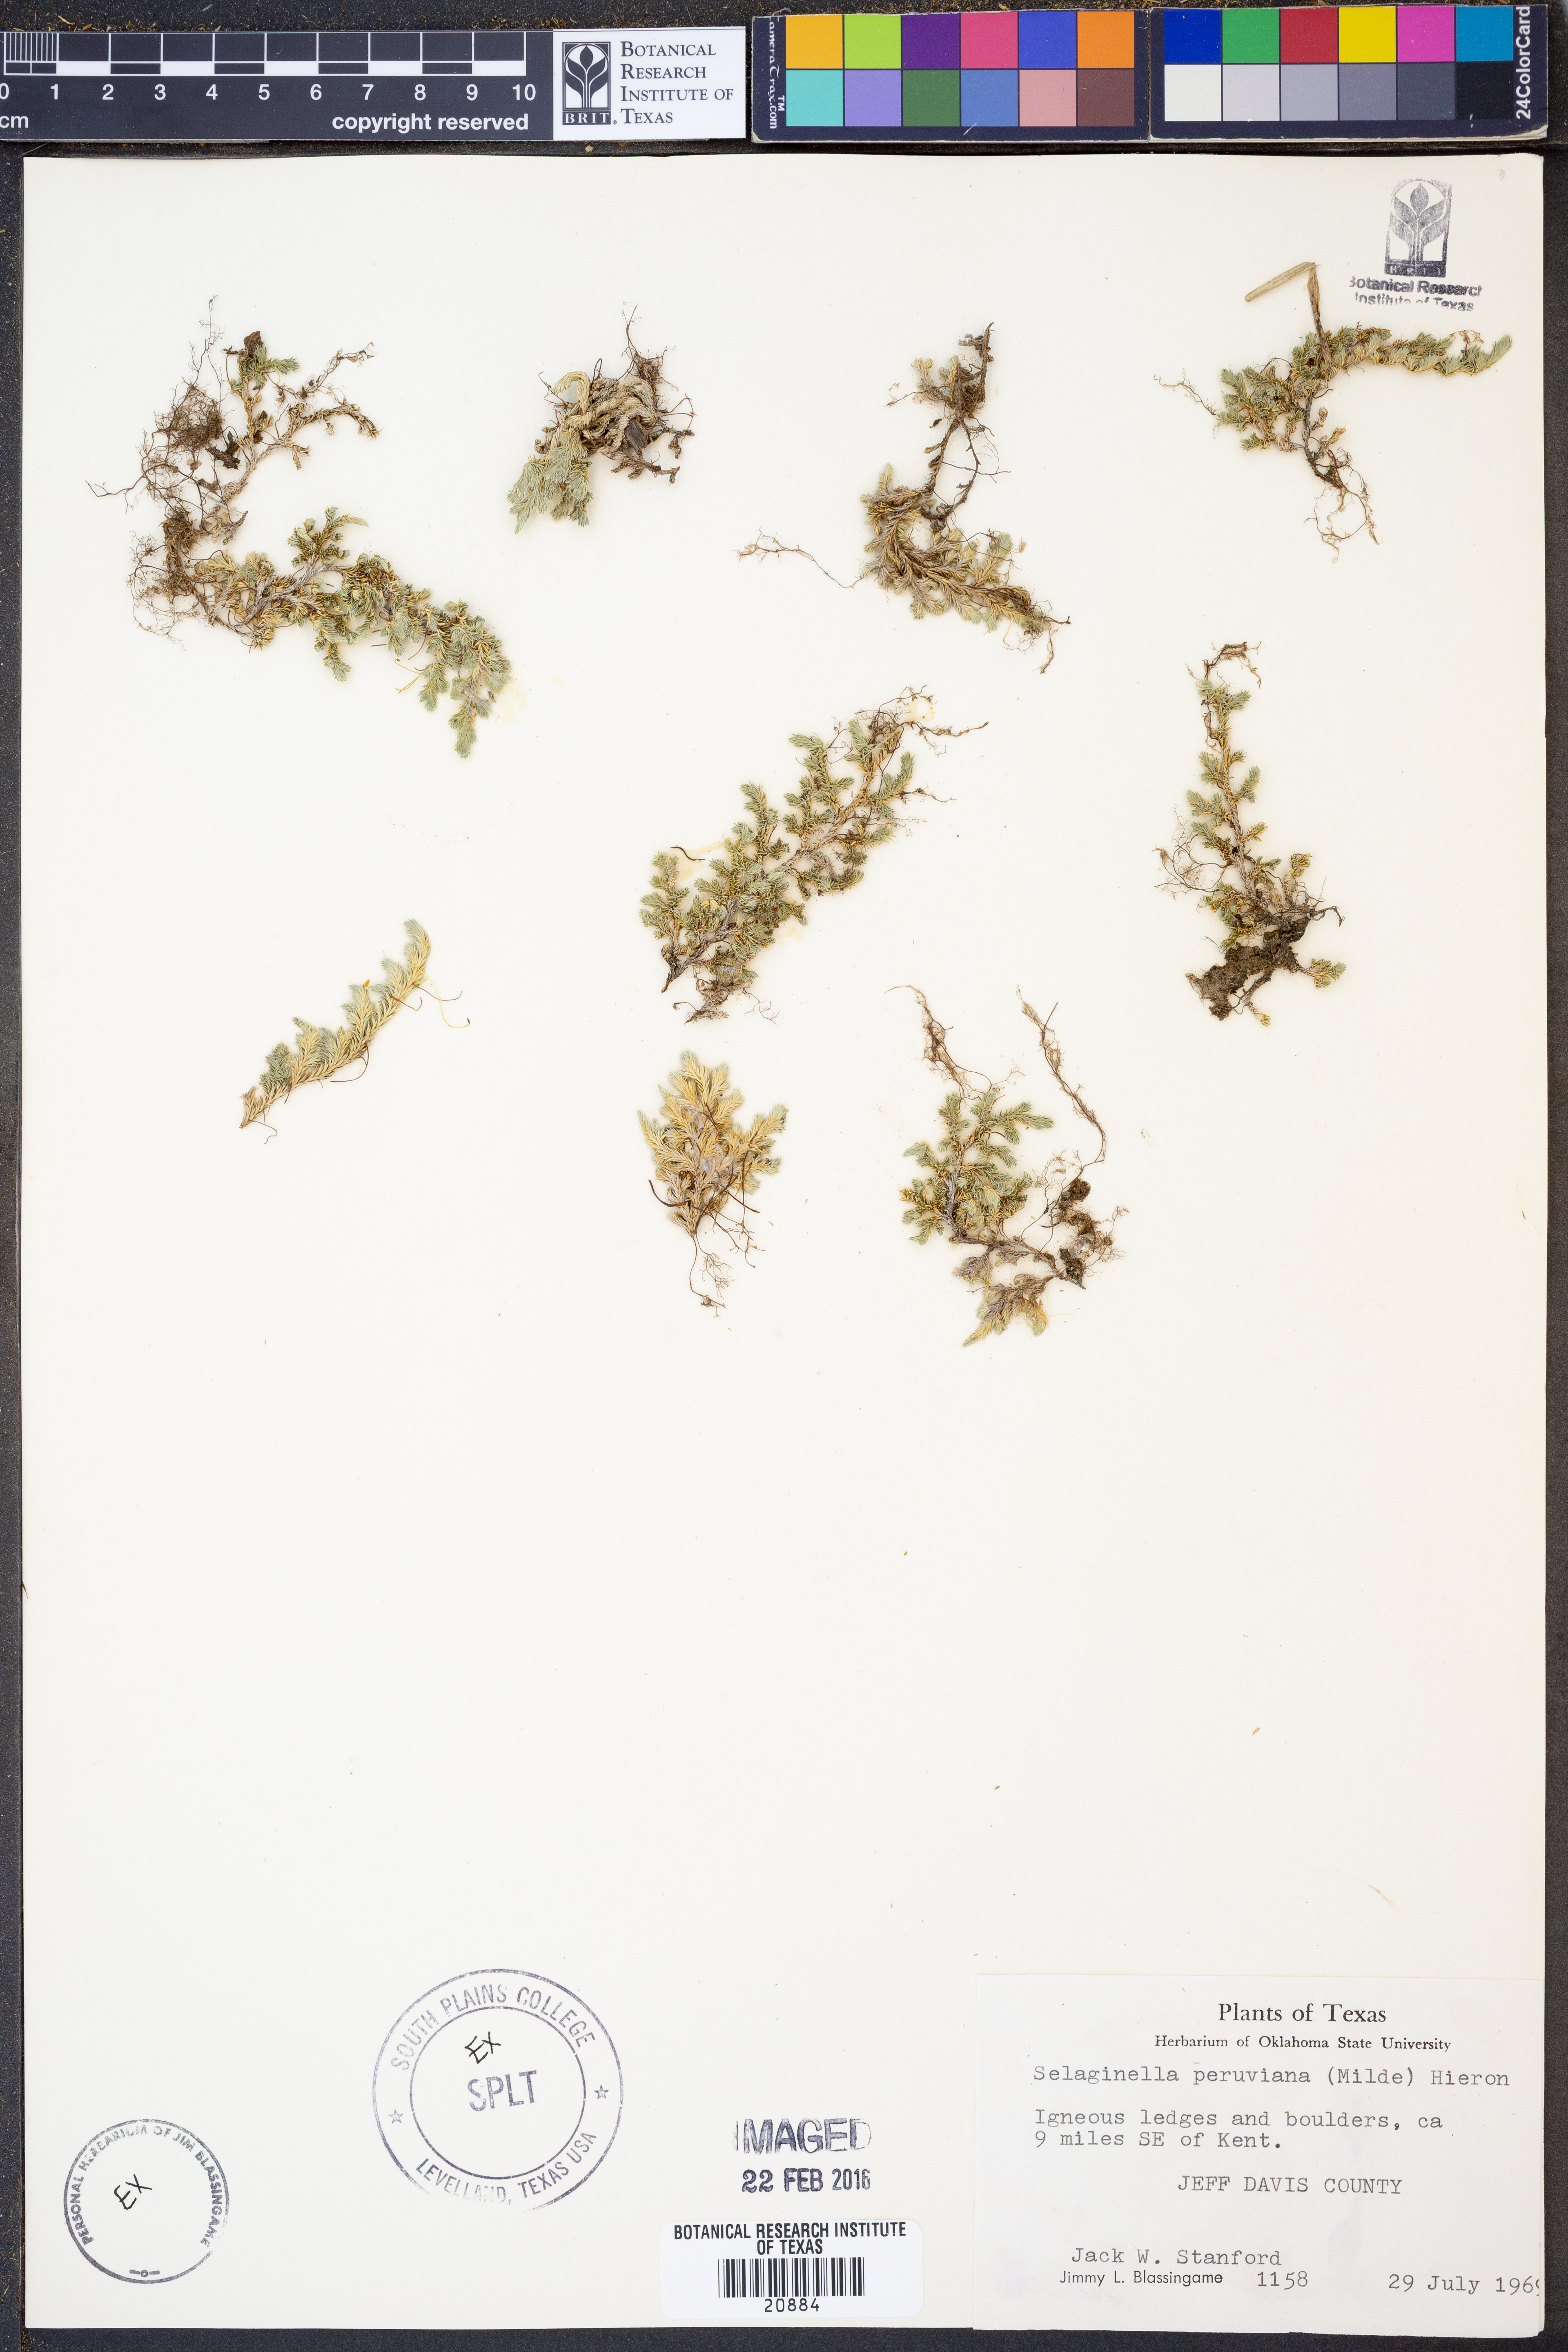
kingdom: Plantae
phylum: Tracheophyta
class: Lycopodiopsida
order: Selaginellales
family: Selaginellaceae
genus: Selaginella
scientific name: Selaginella peruviana
